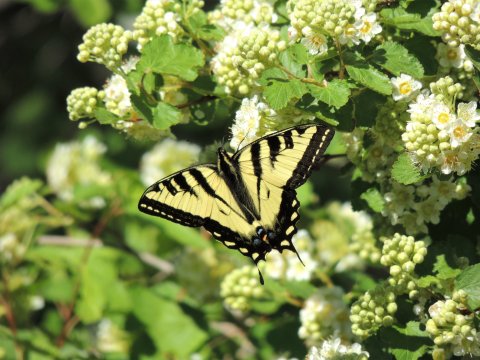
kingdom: Animalia
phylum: Arthropoda
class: Insecta
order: Lepidoptera
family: Papilionidae
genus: Pterourus
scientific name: Pterourus rutulus
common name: Western Tiger Swallowtail
